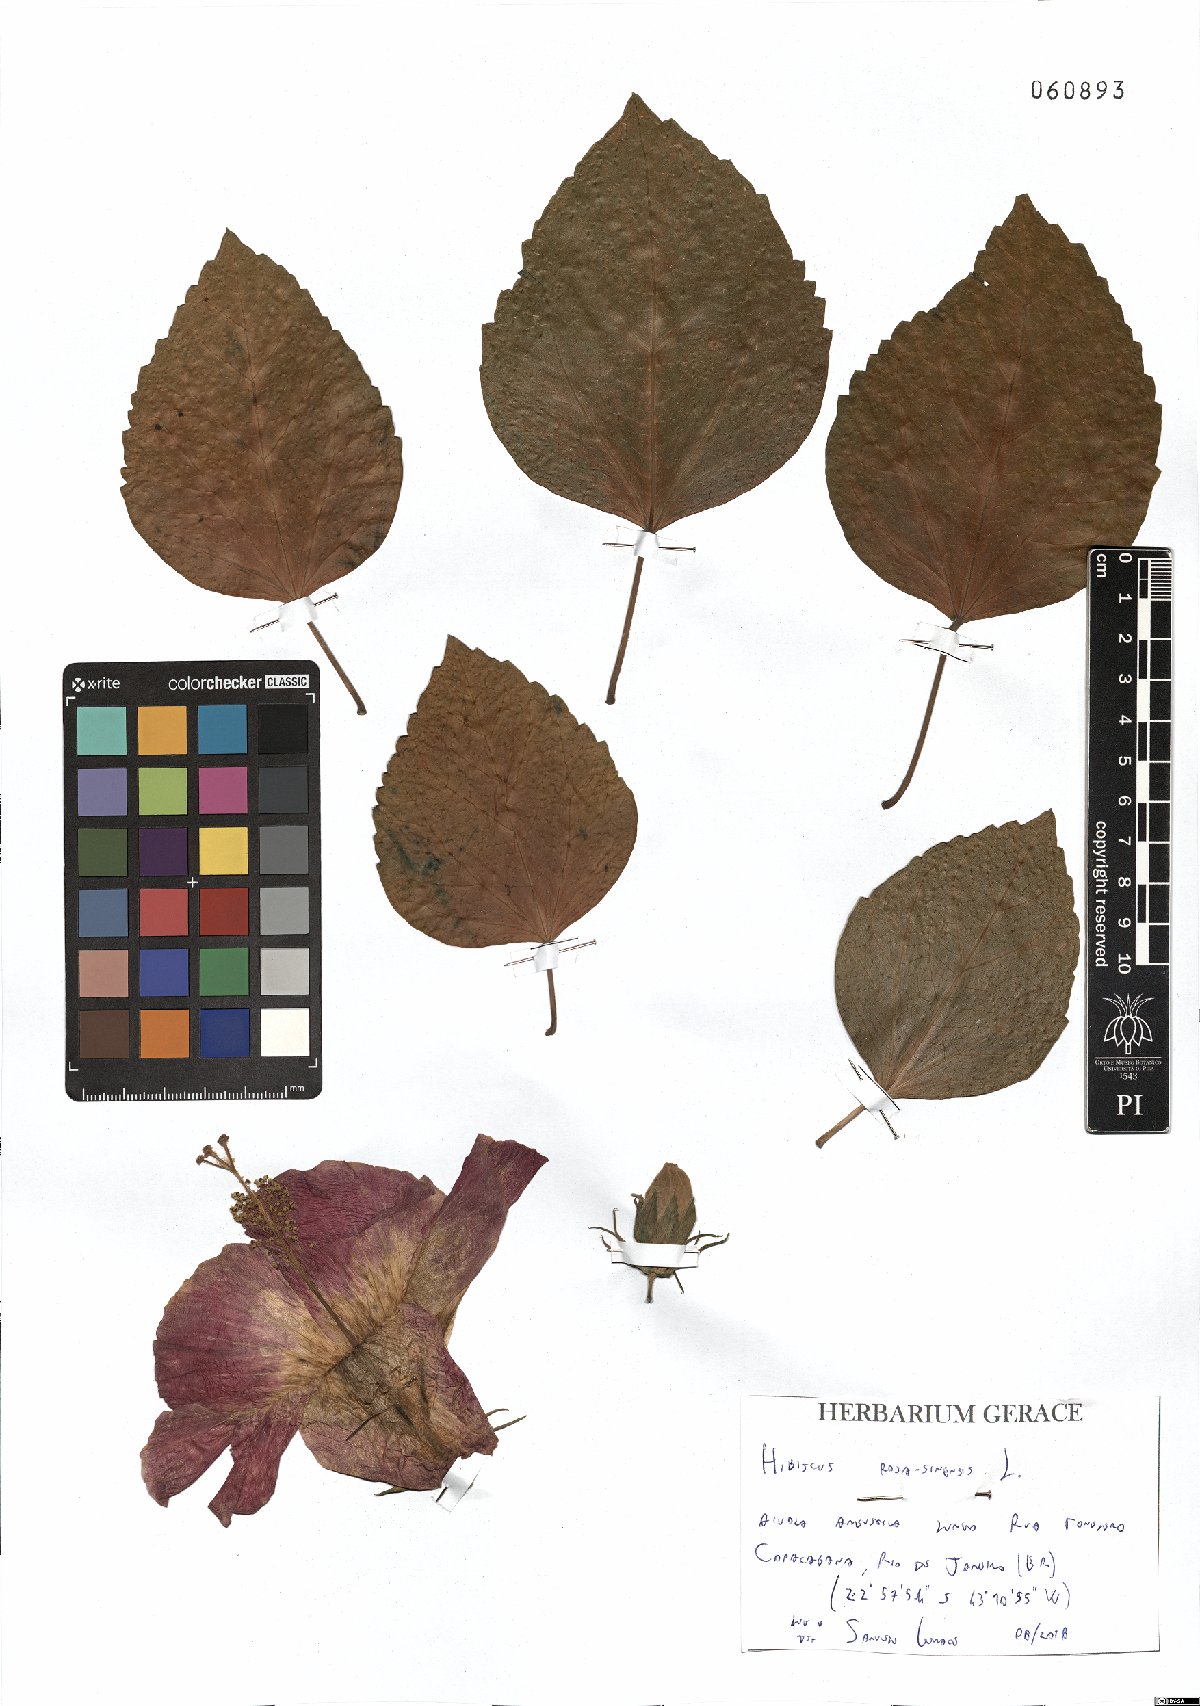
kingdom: Plantae
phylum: Tracheophyta
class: Magnoliopsida
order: Malvales
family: Malvaceae
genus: Hibiscus
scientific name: Hibiscus rosa-sinensis
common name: Hibiscus
